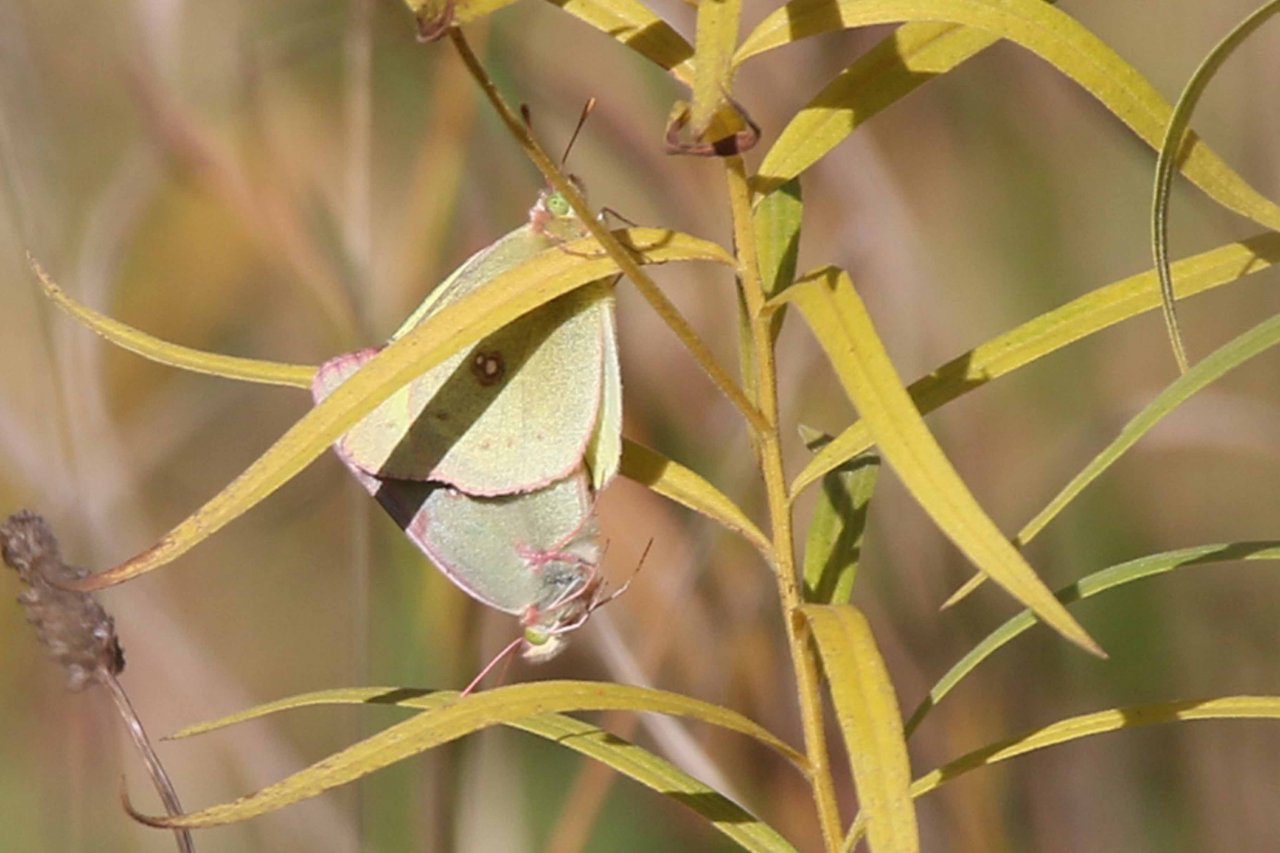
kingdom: Animalia
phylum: Arthropoda
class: Insecta
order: Lepidoptera
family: Pieridae
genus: Colias
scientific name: Colias philodice
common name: Clouded Sulphur
